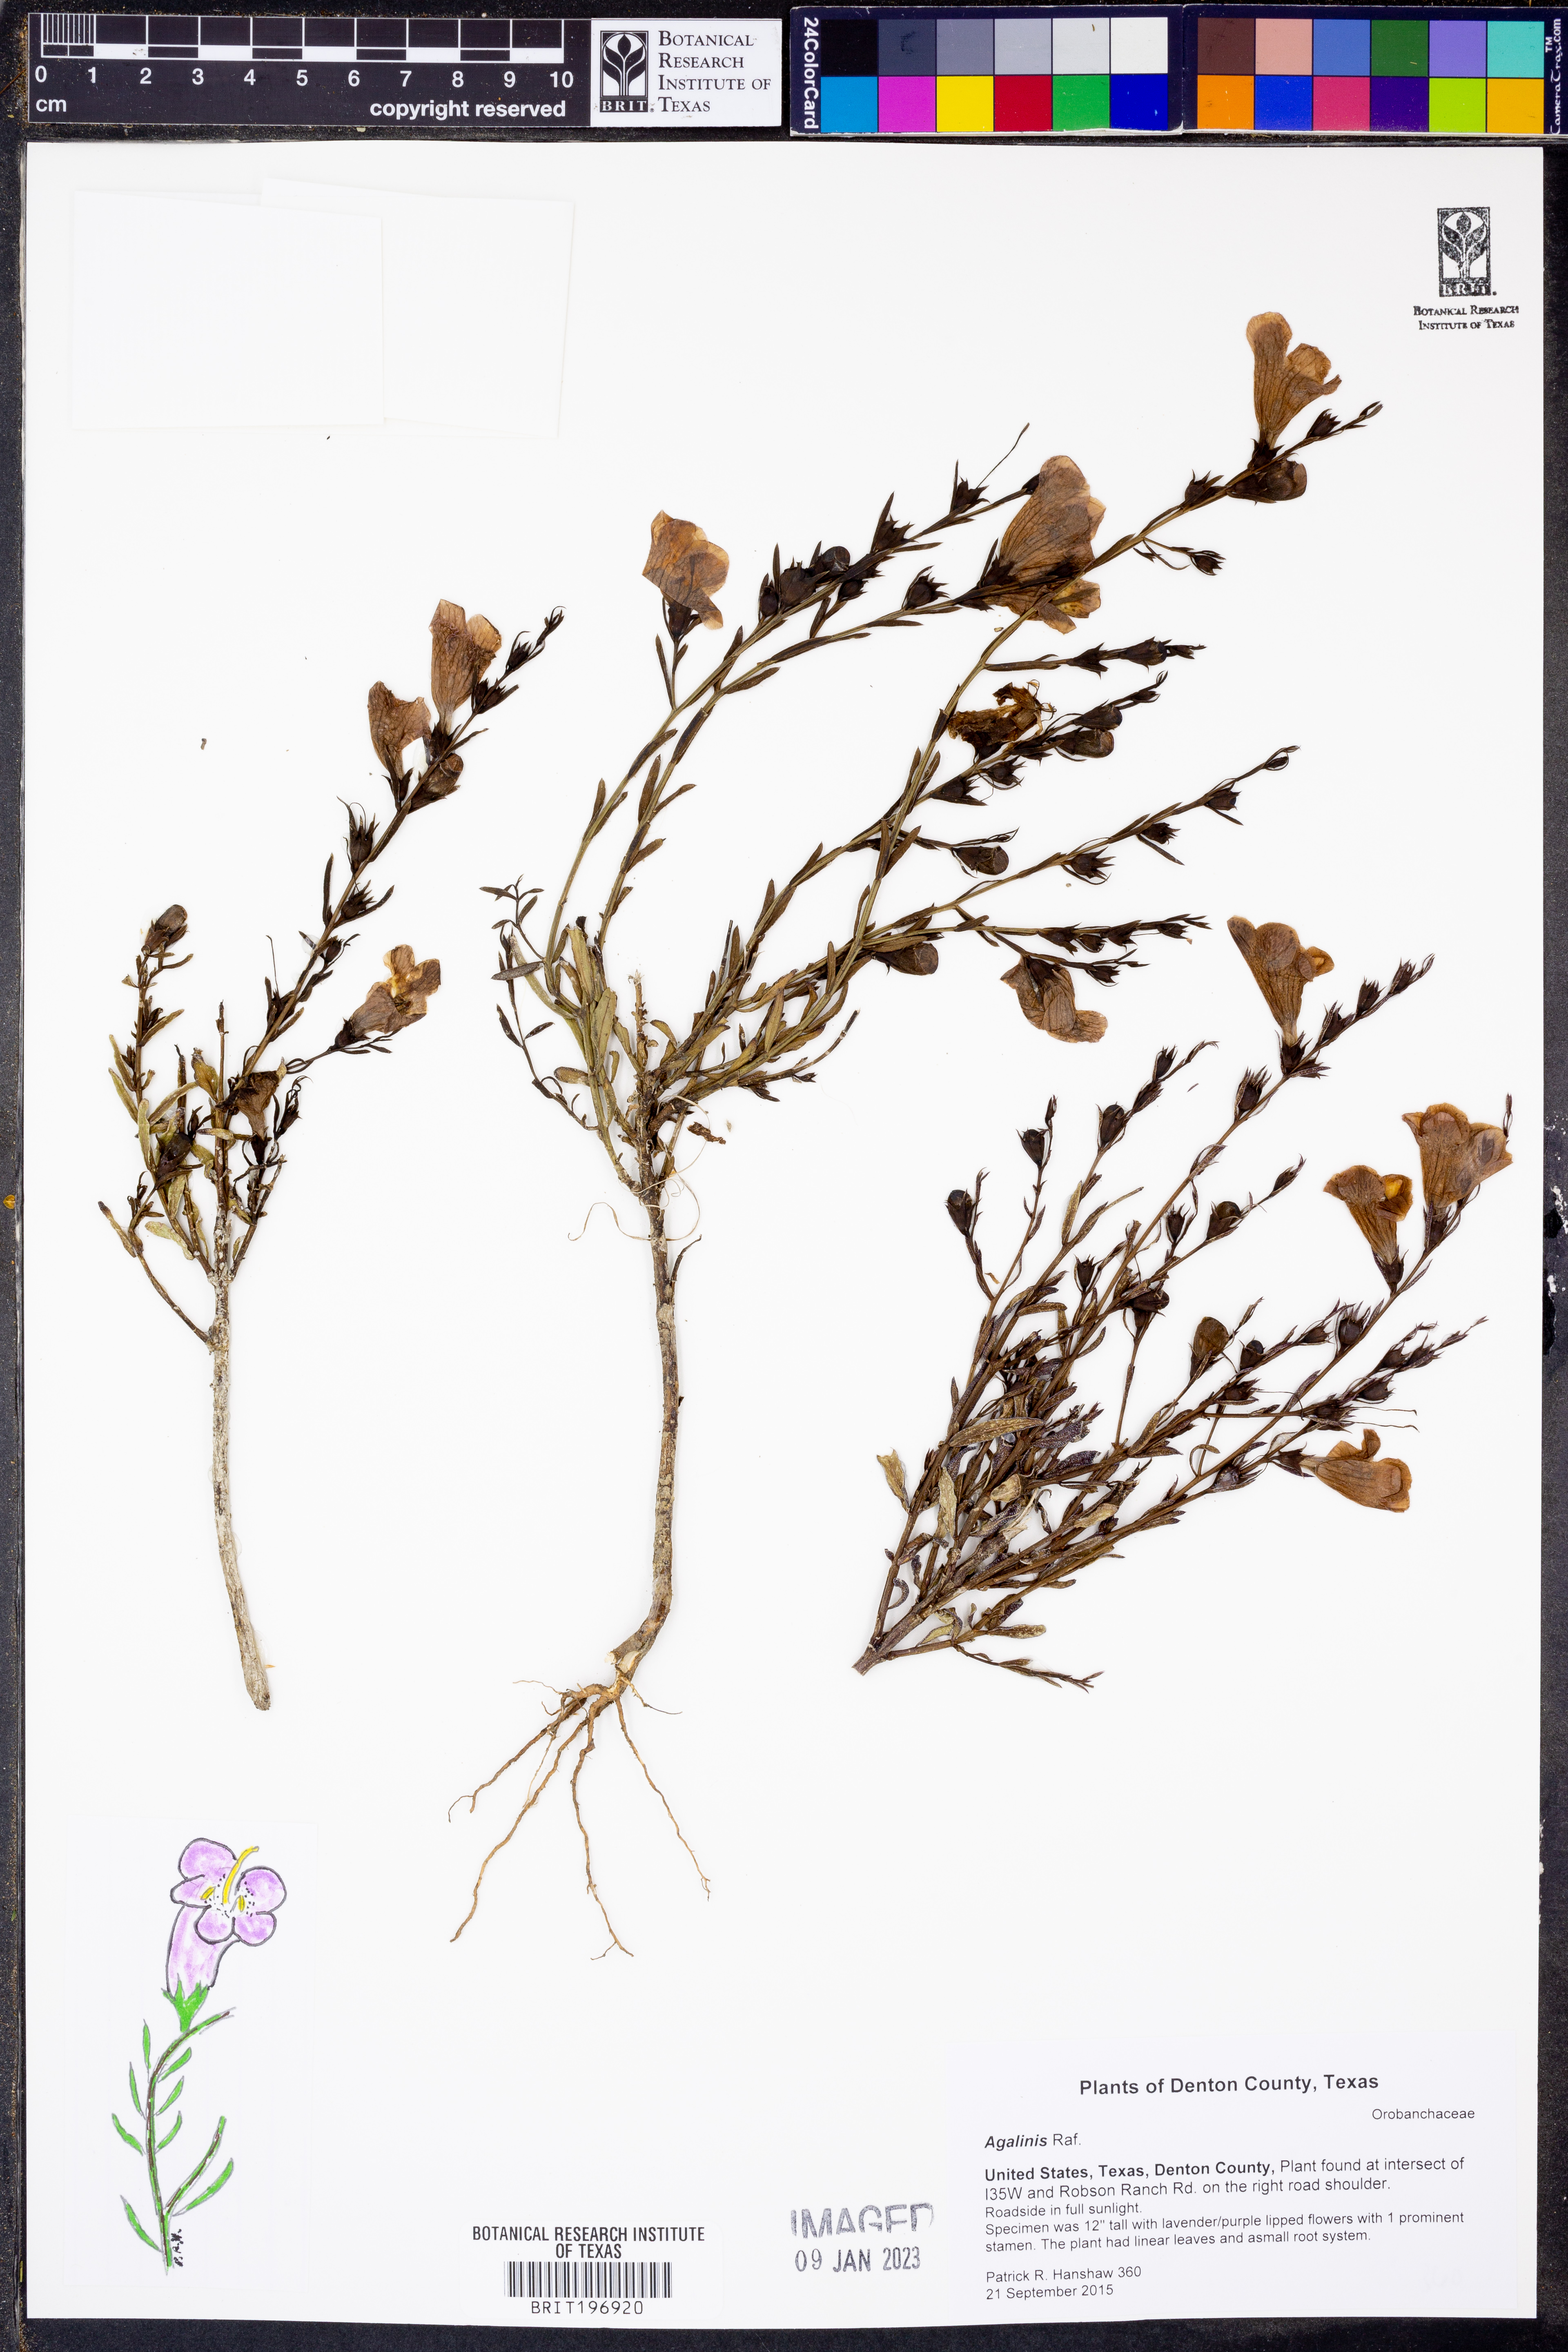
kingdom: Plantae
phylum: Tracheophyta
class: Magnoliopsida
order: Lamiales
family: Orobanchaceae
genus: Agalinis
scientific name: Agalinis
